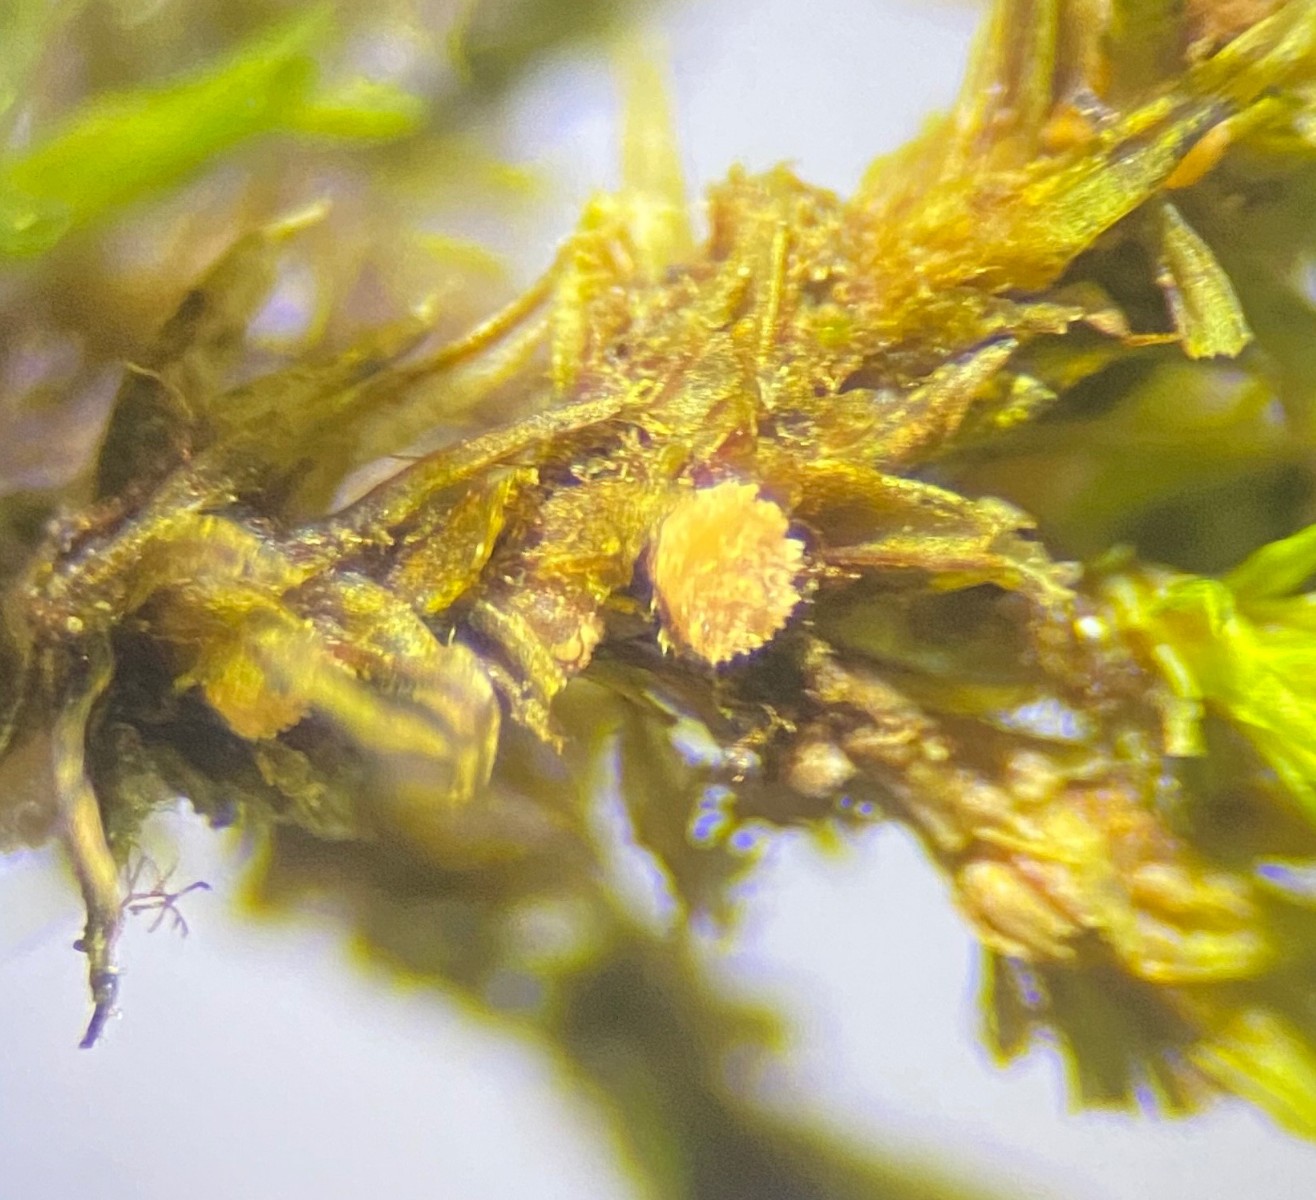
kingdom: Fungi
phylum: Ascomycota
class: Pezizomycetes
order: Pezizales
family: Pyronemataceae
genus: Octospora
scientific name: Octospora affinis
